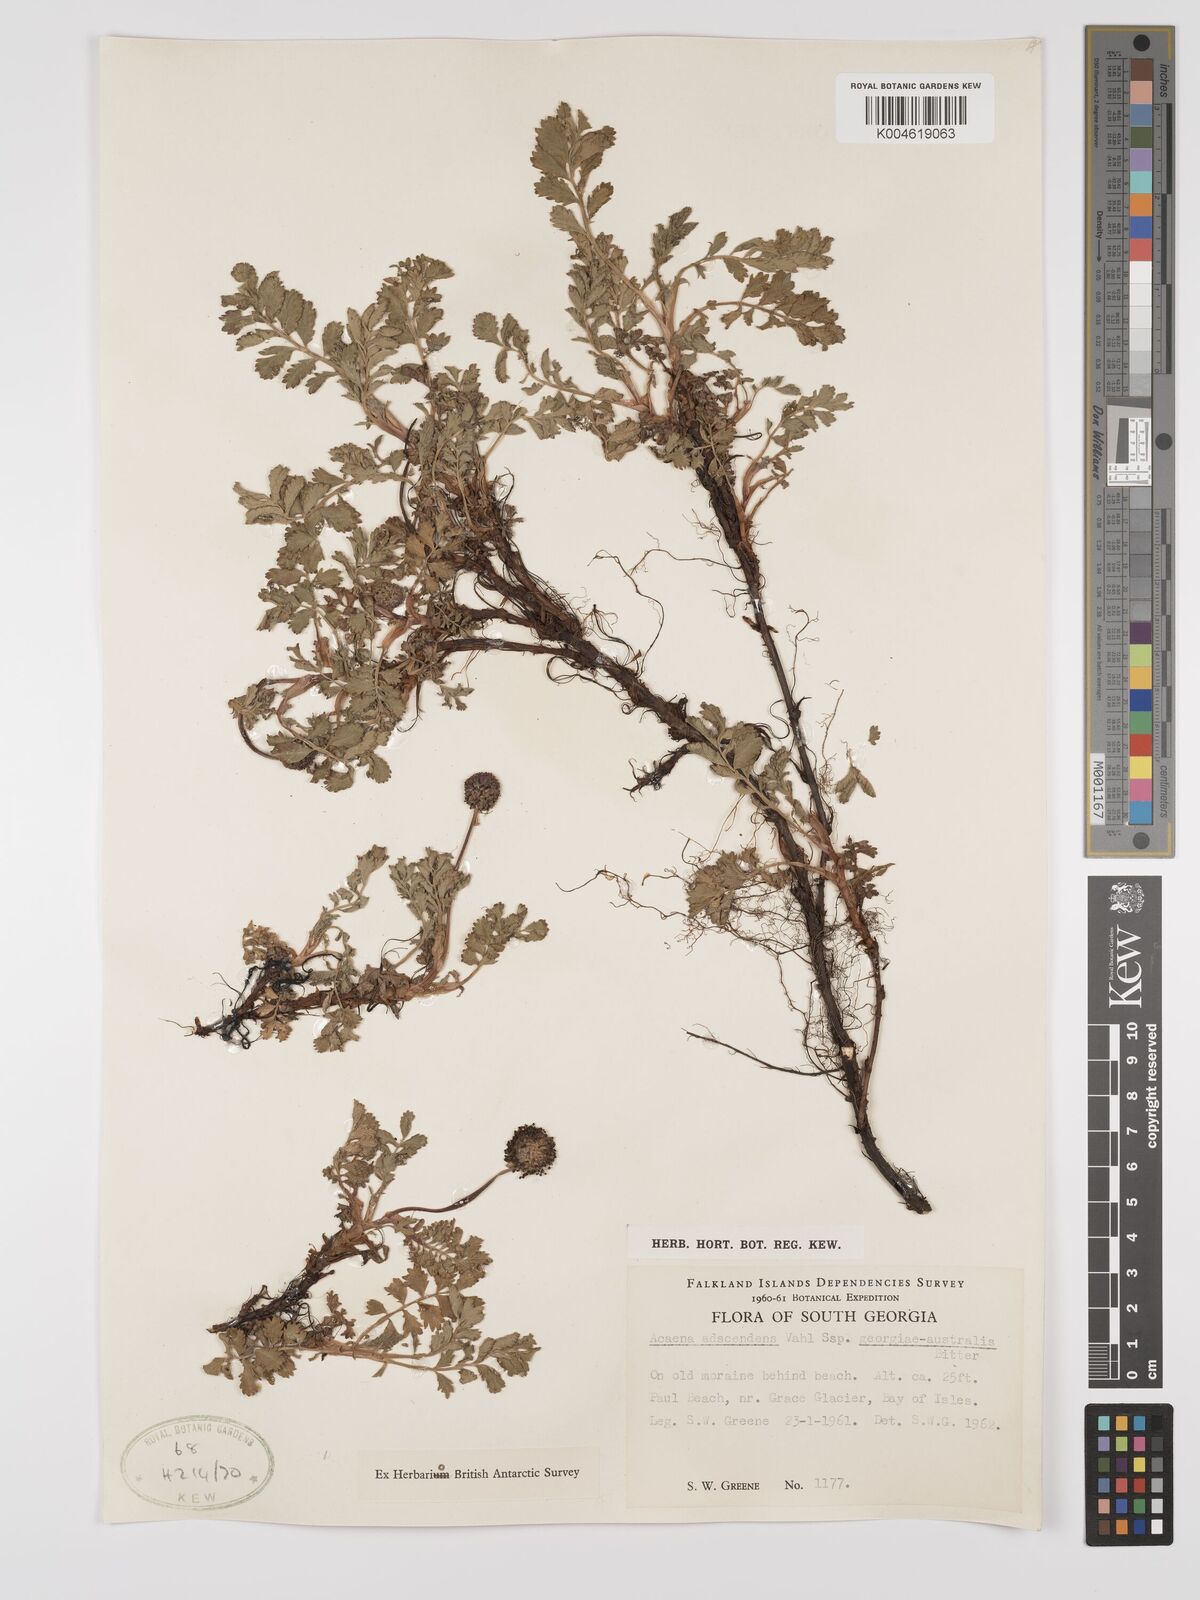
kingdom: Plantae
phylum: Tracheophyta
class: Magnoliopsida
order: Rosales
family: Rosaceae
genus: Acaena
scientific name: Acaena magellanica
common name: New zealand burr
